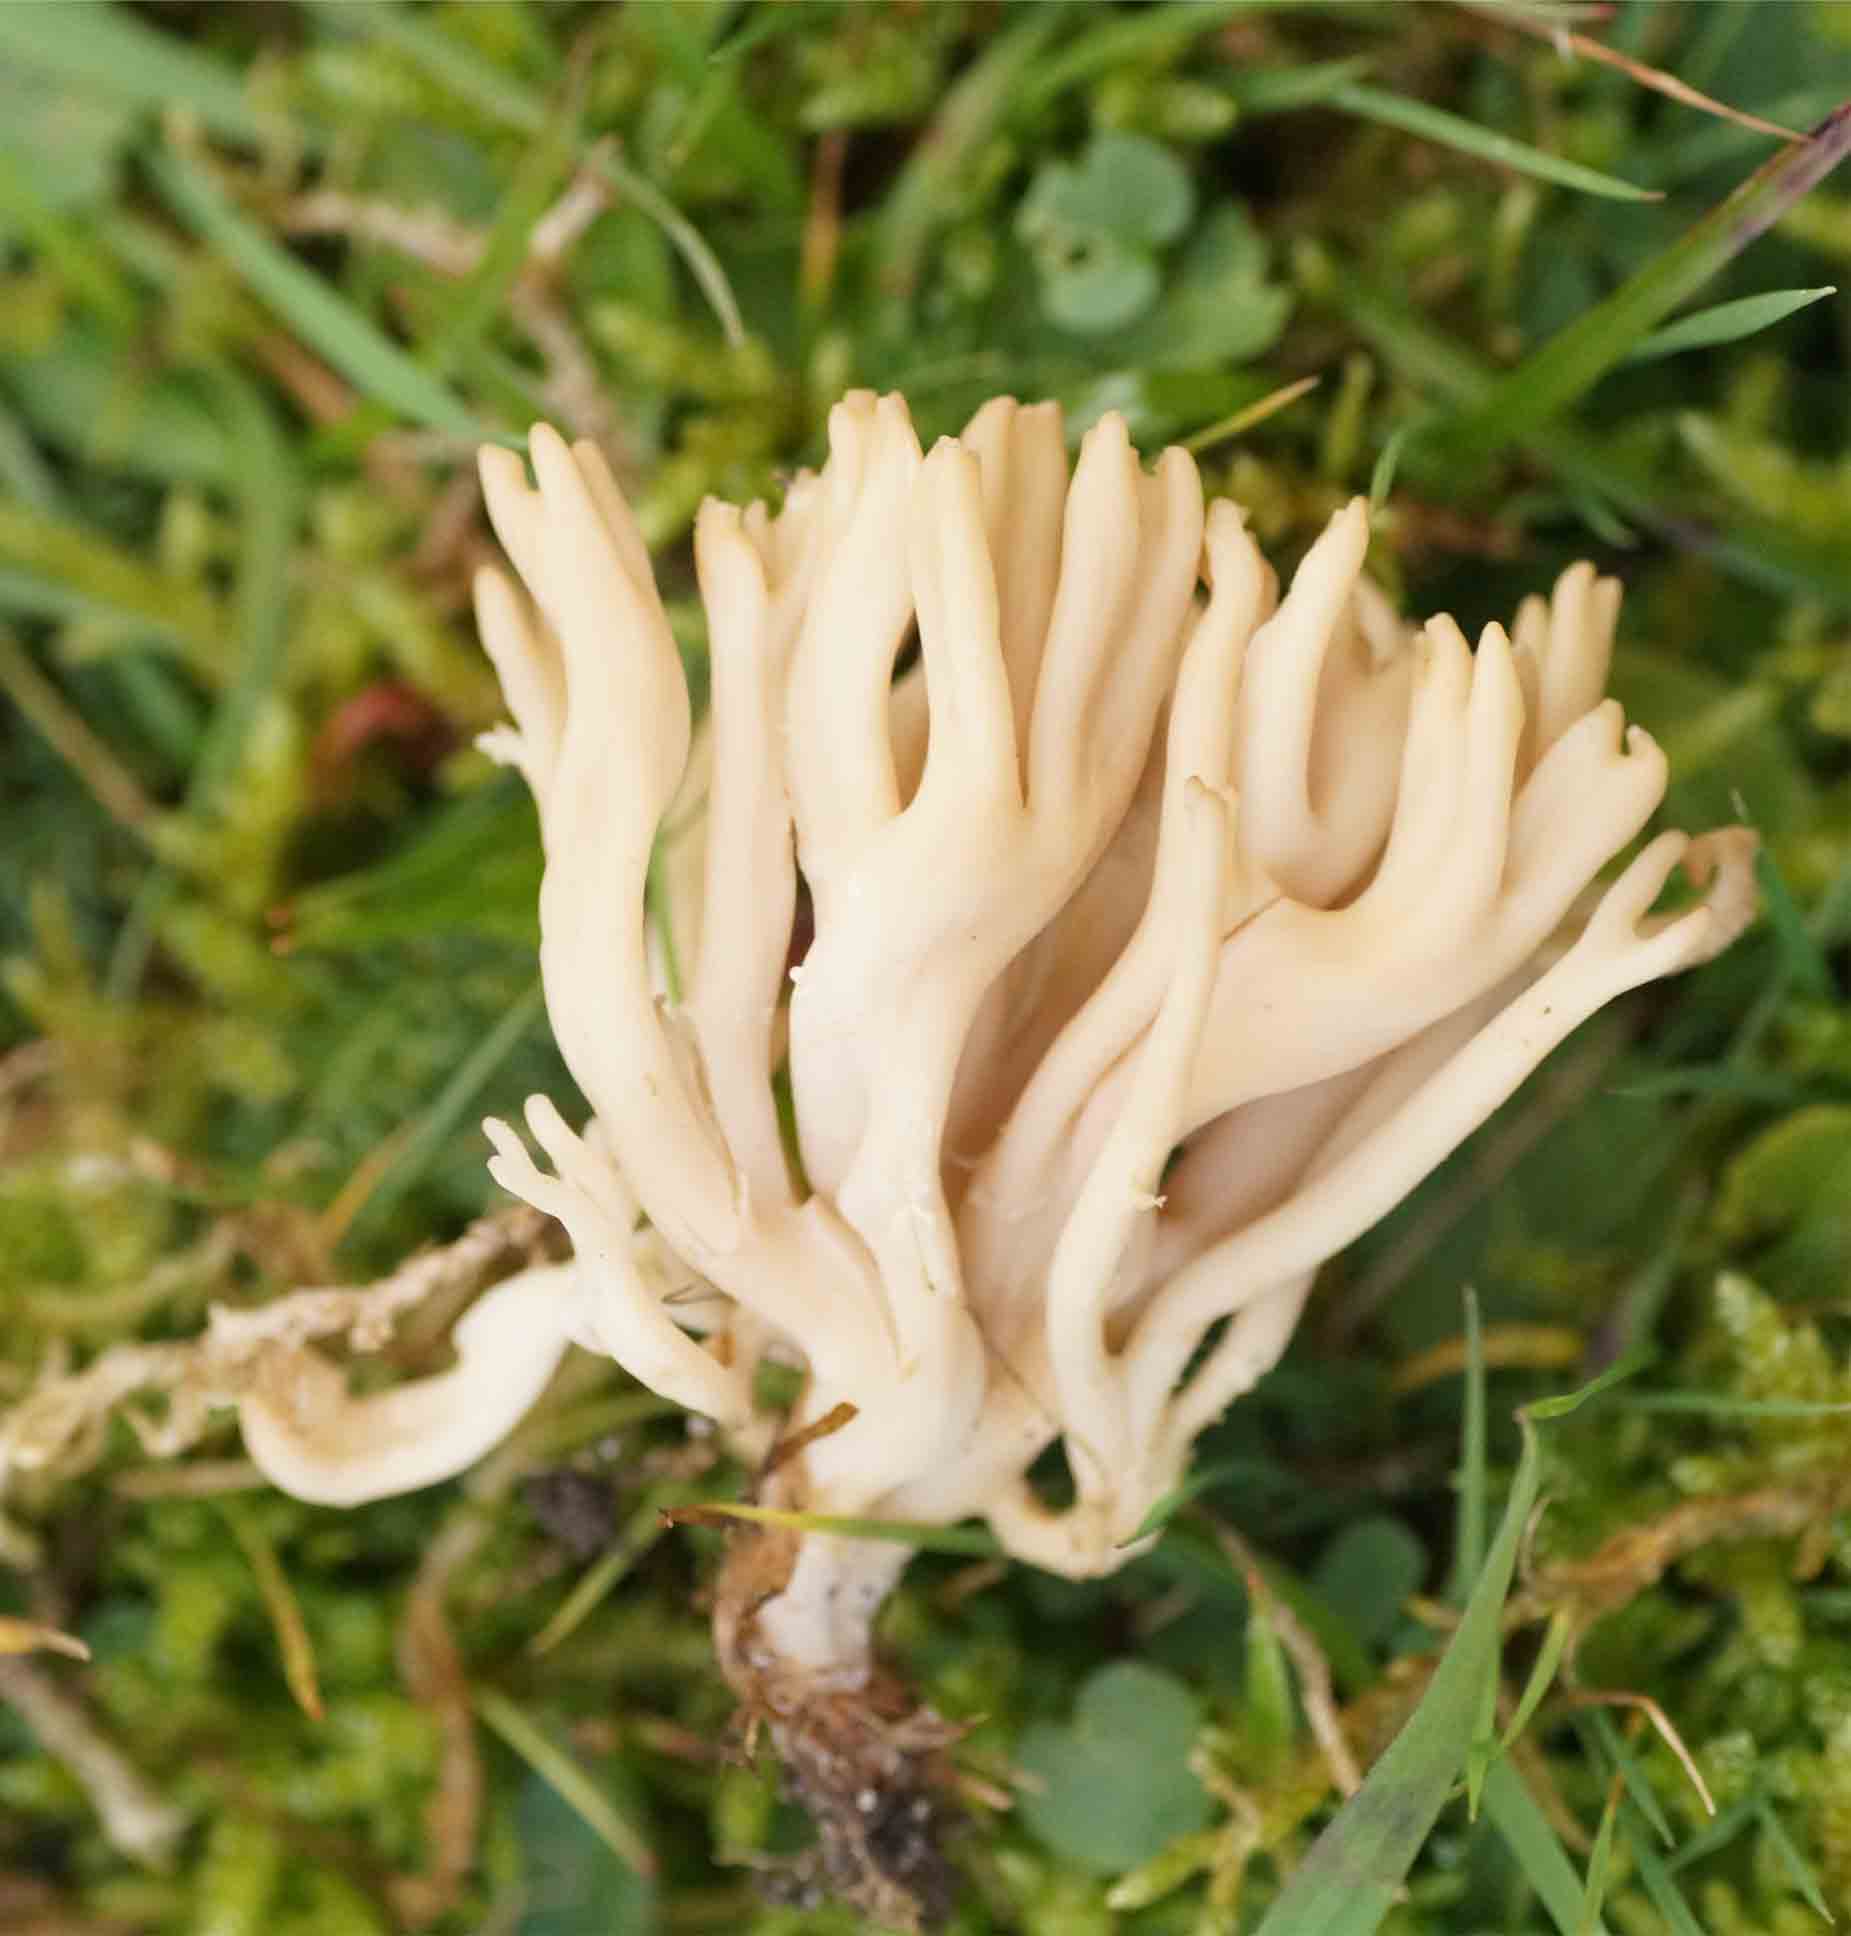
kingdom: Fungi
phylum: Basidiomycota
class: Agaricomycetes
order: Agaricales
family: Clavariaceae
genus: Clavulinopsis
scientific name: Clavulinopsis umbrinella
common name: gulgrå køllesvamp
